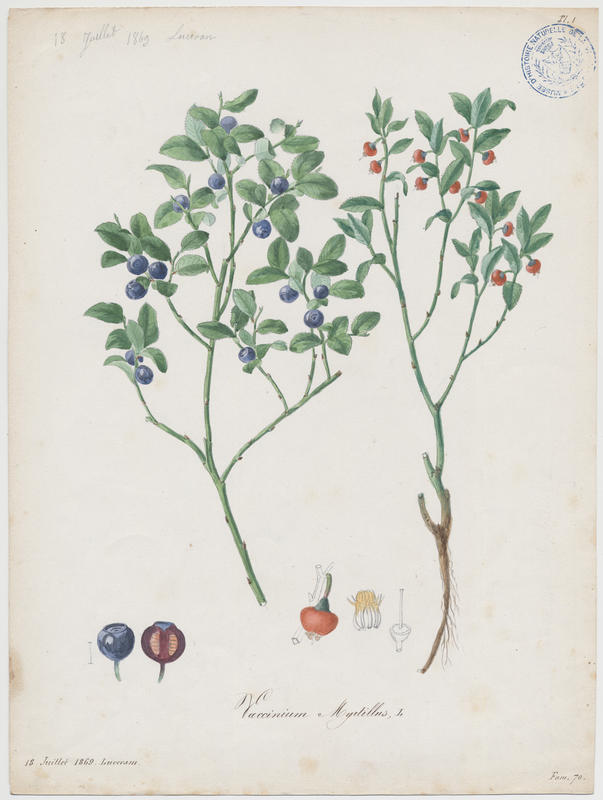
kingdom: Plantae
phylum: Tracheophyta
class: Magnoliopsida
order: Ericales
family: Ericaceae
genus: Vaccinium
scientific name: Vaccinium myrtillus
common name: Bilberry
